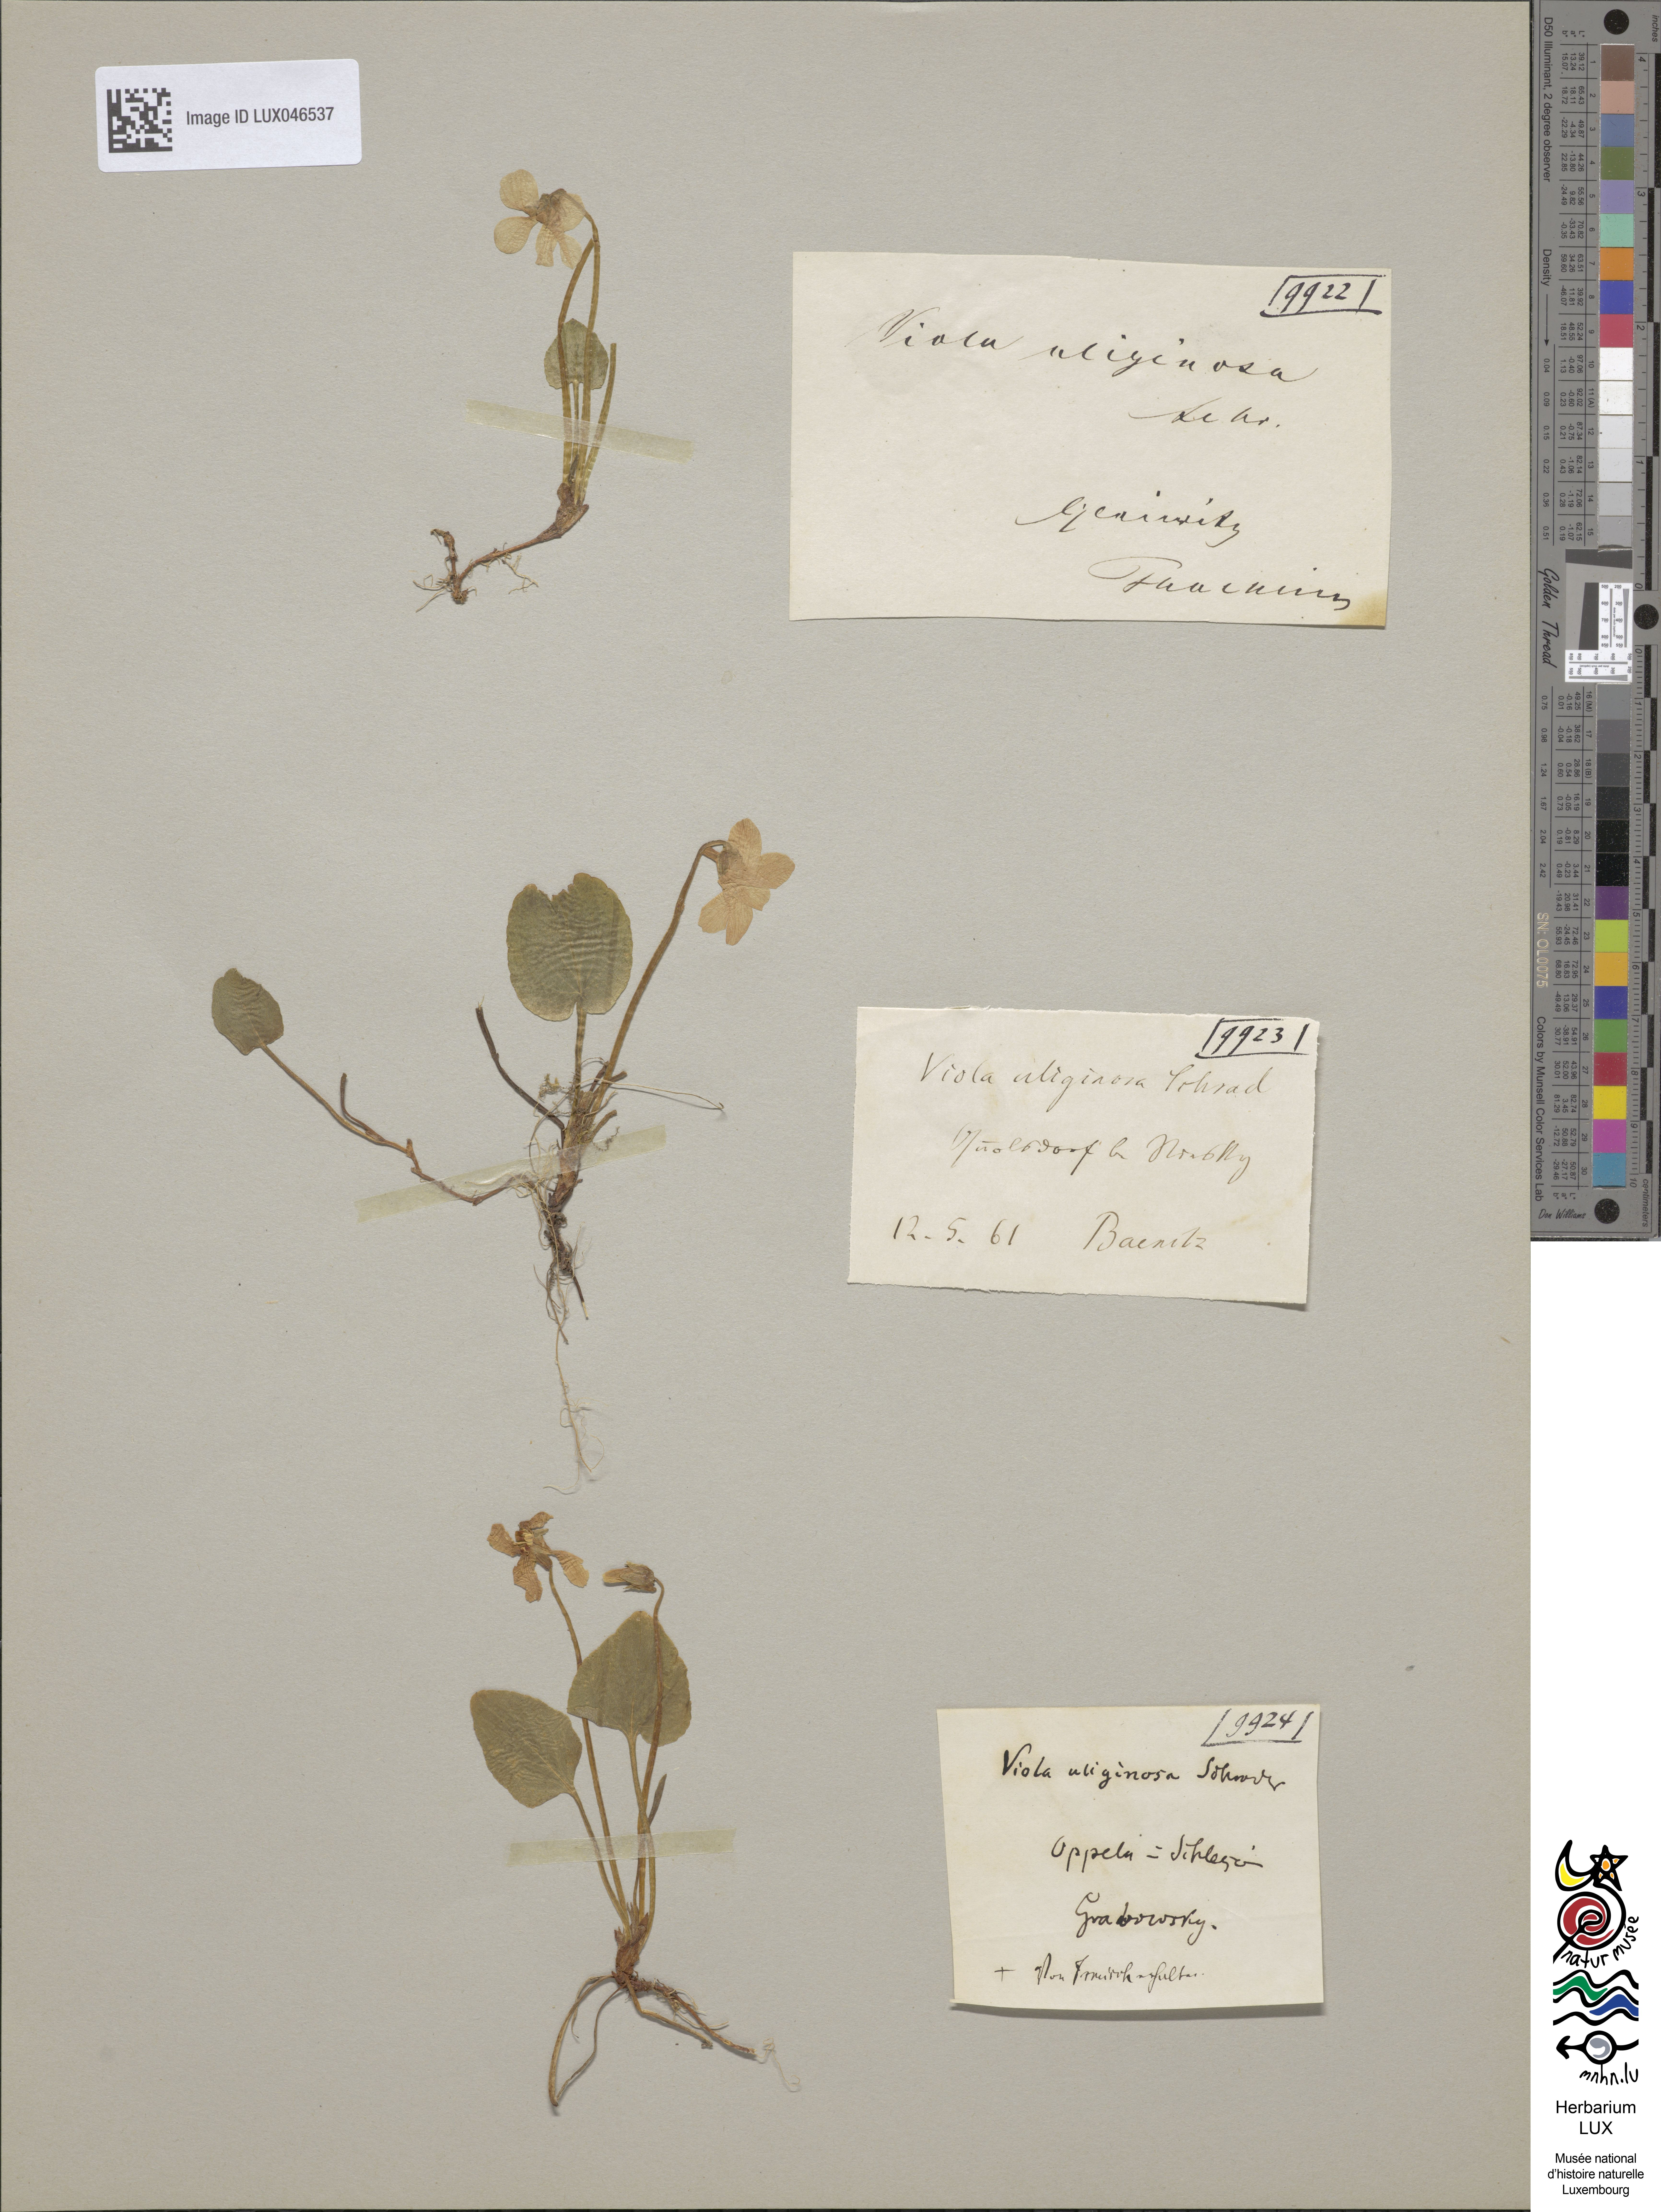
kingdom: Plantae
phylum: Tracheophyta
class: Magnoliopsida
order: Malpighiales
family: Violaceae
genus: Viola
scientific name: Viola uliginosa
